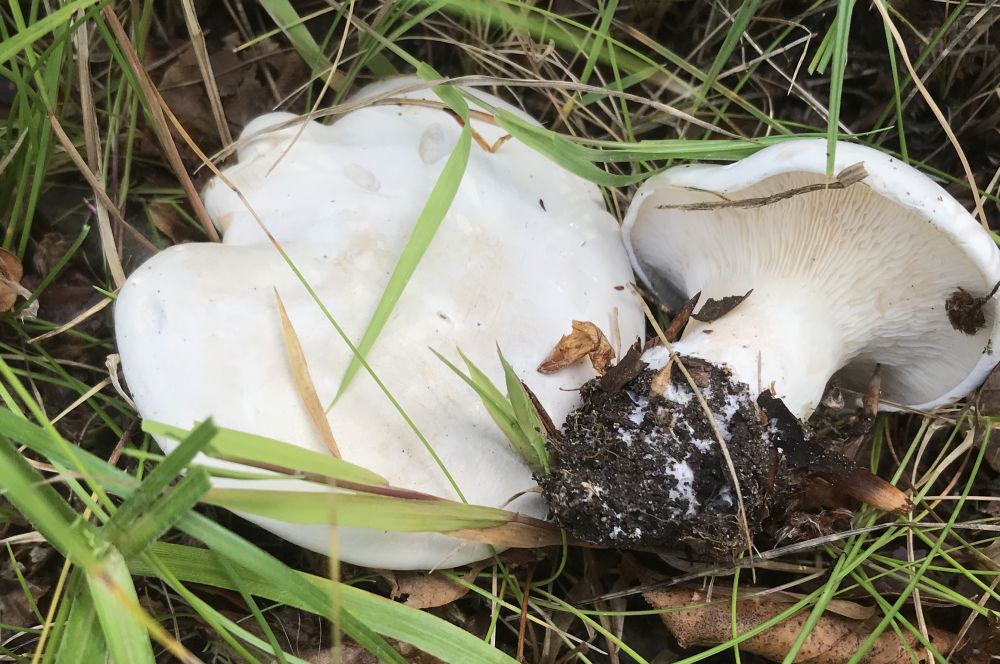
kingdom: Fungi
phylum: Basidiomycota
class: Agaricomycetes
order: Agaricales
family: Entolomataceae
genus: Clitopilus
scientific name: Clitopilus prunulus
